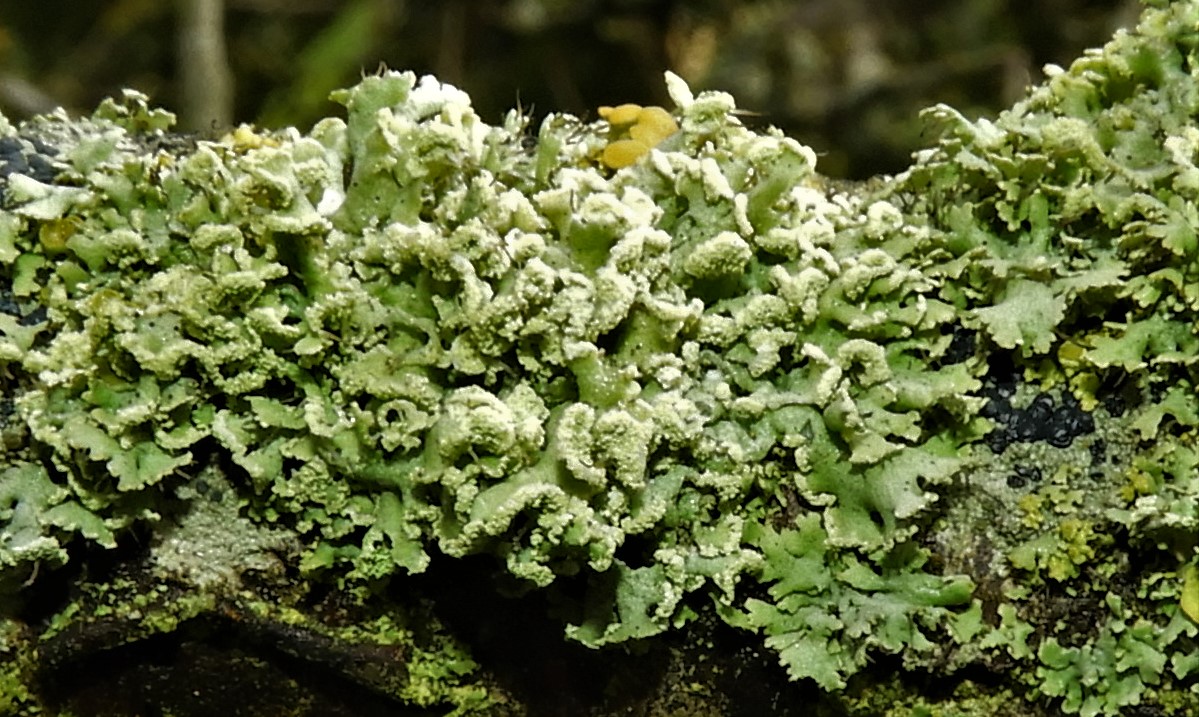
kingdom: Fungi
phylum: Ascomycota
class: Lecanoromycetes
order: Caliciales
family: Physciaceae
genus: Physcia
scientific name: Physcia tenella
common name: spæd rosetlav
